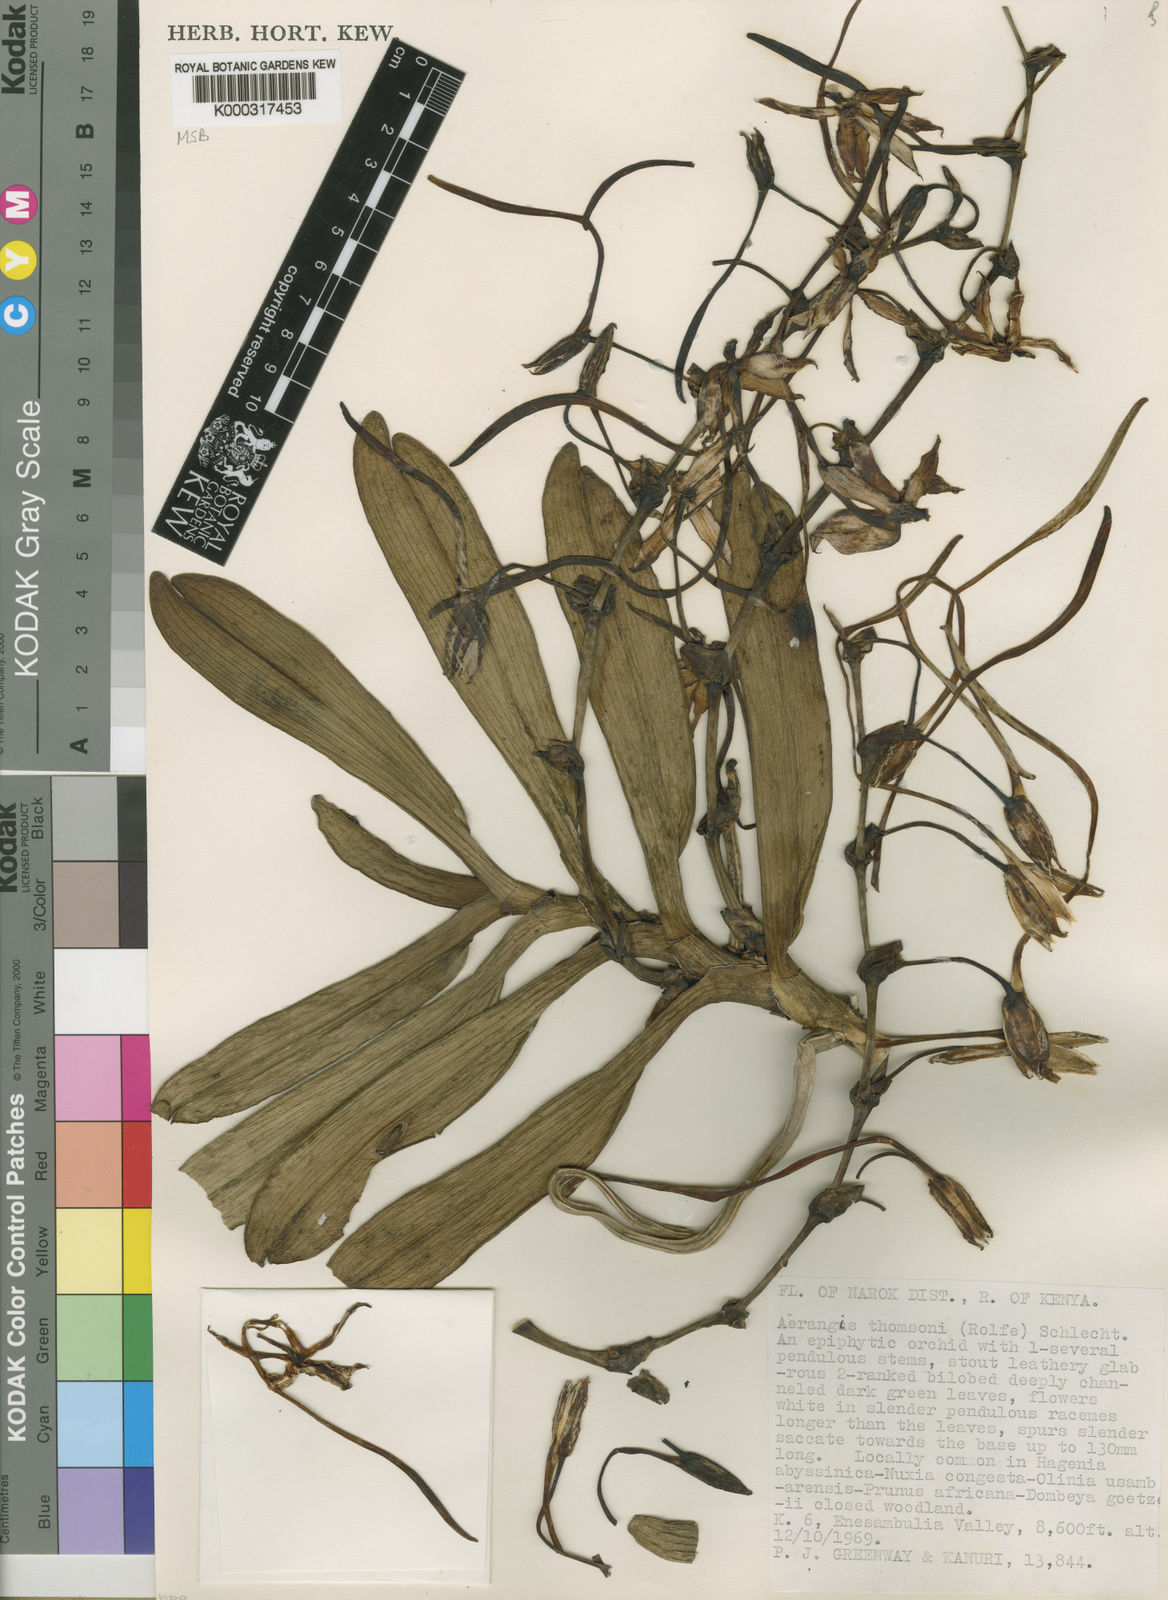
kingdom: Plantae
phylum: Tracheophyta
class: Liliopsida
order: Asparagales
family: Orchidaceae
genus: Aerangis
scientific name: Aerangis thomsonii
